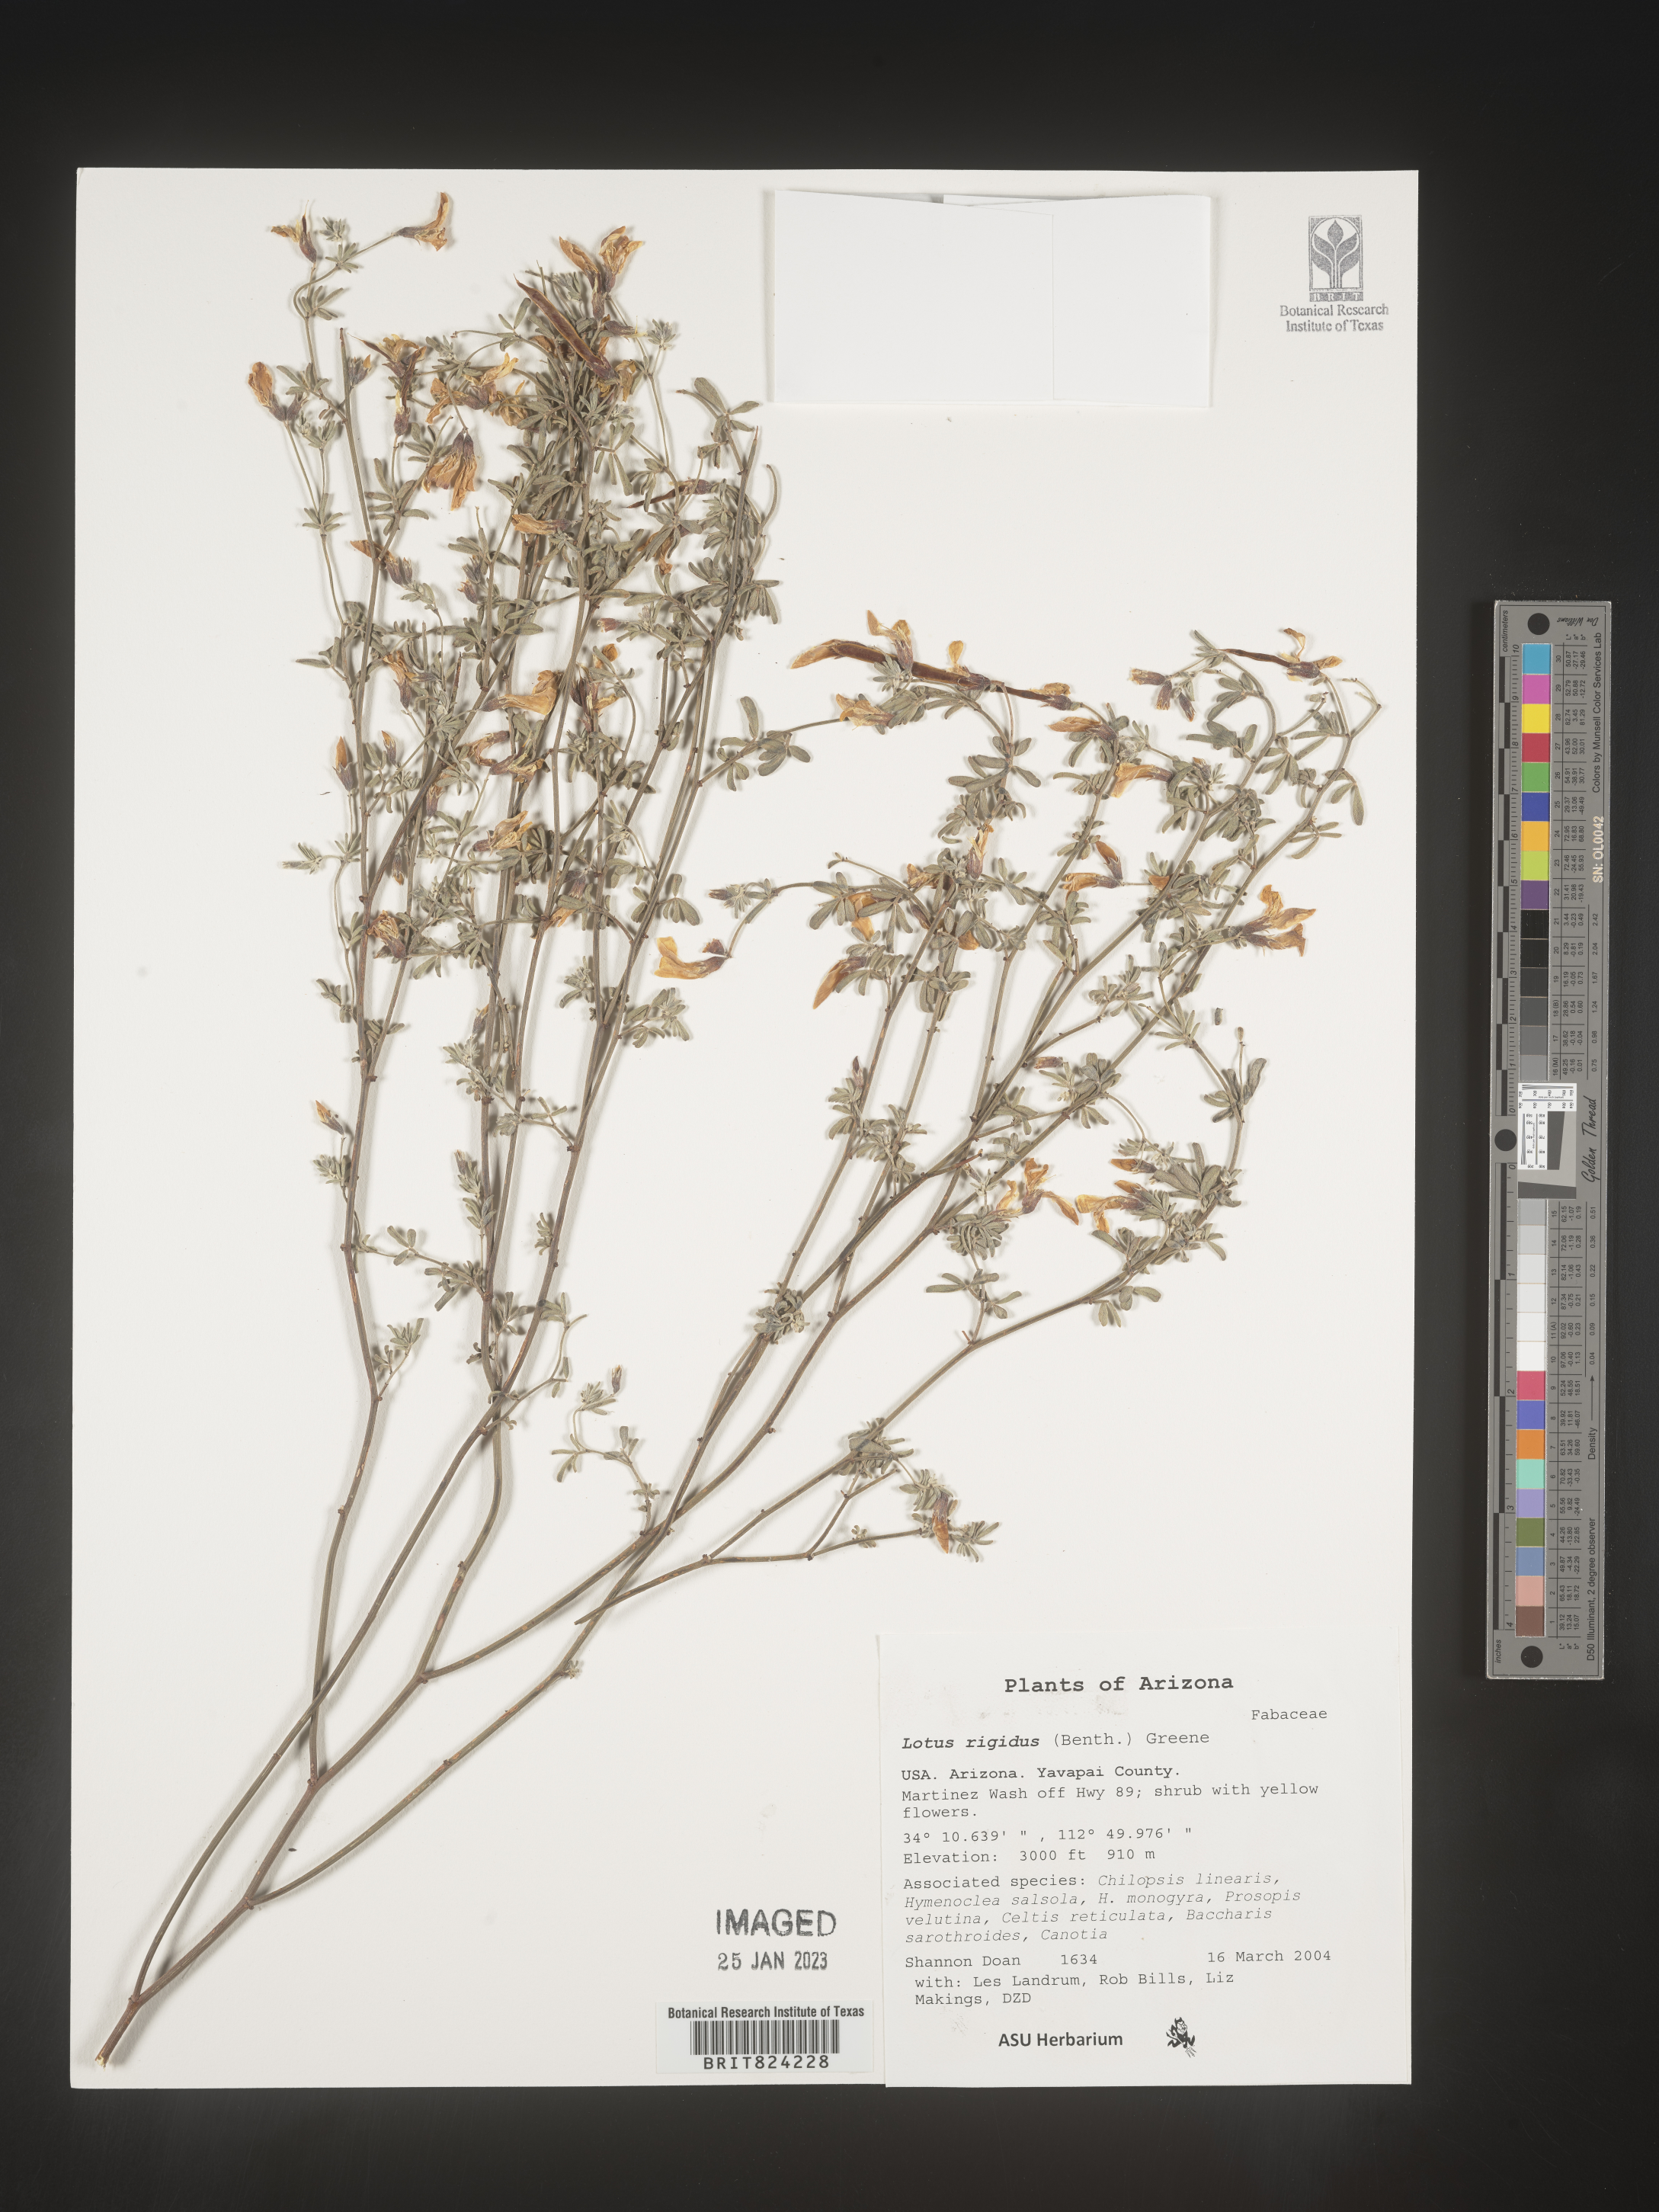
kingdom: Plantae
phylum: Tracheophyta
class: Magnoliopsida
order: Fabales
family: Fabaceae
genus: Lotus
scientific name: Lotus
